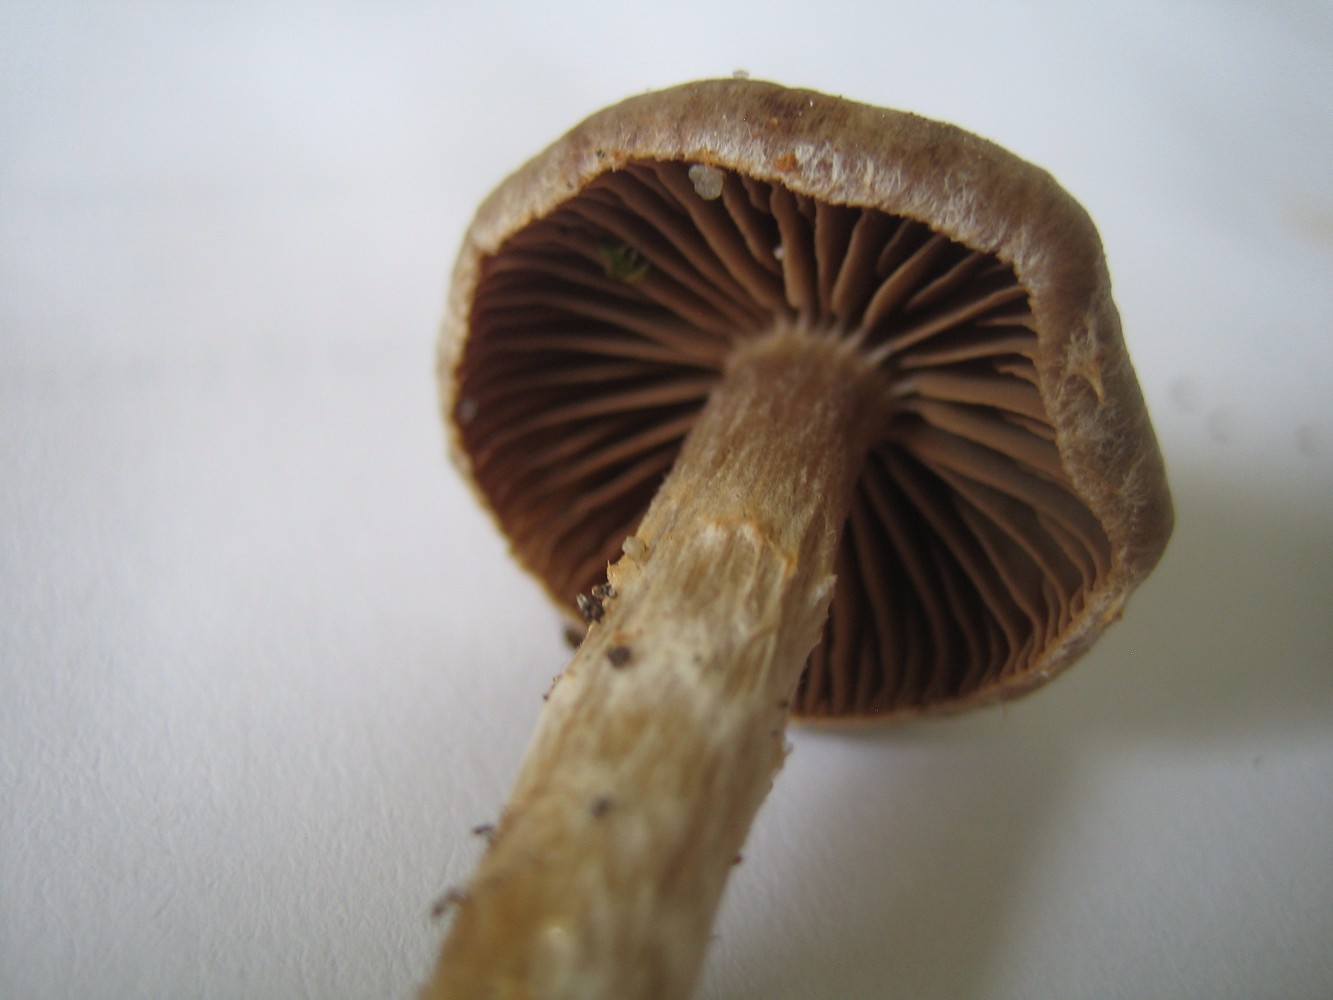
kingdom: Fungi
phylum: Basidiomycota
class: Agaricomycetes
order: Agaricales
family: Cortinariaceae
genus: Cortinarius
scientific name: Cortinarius
